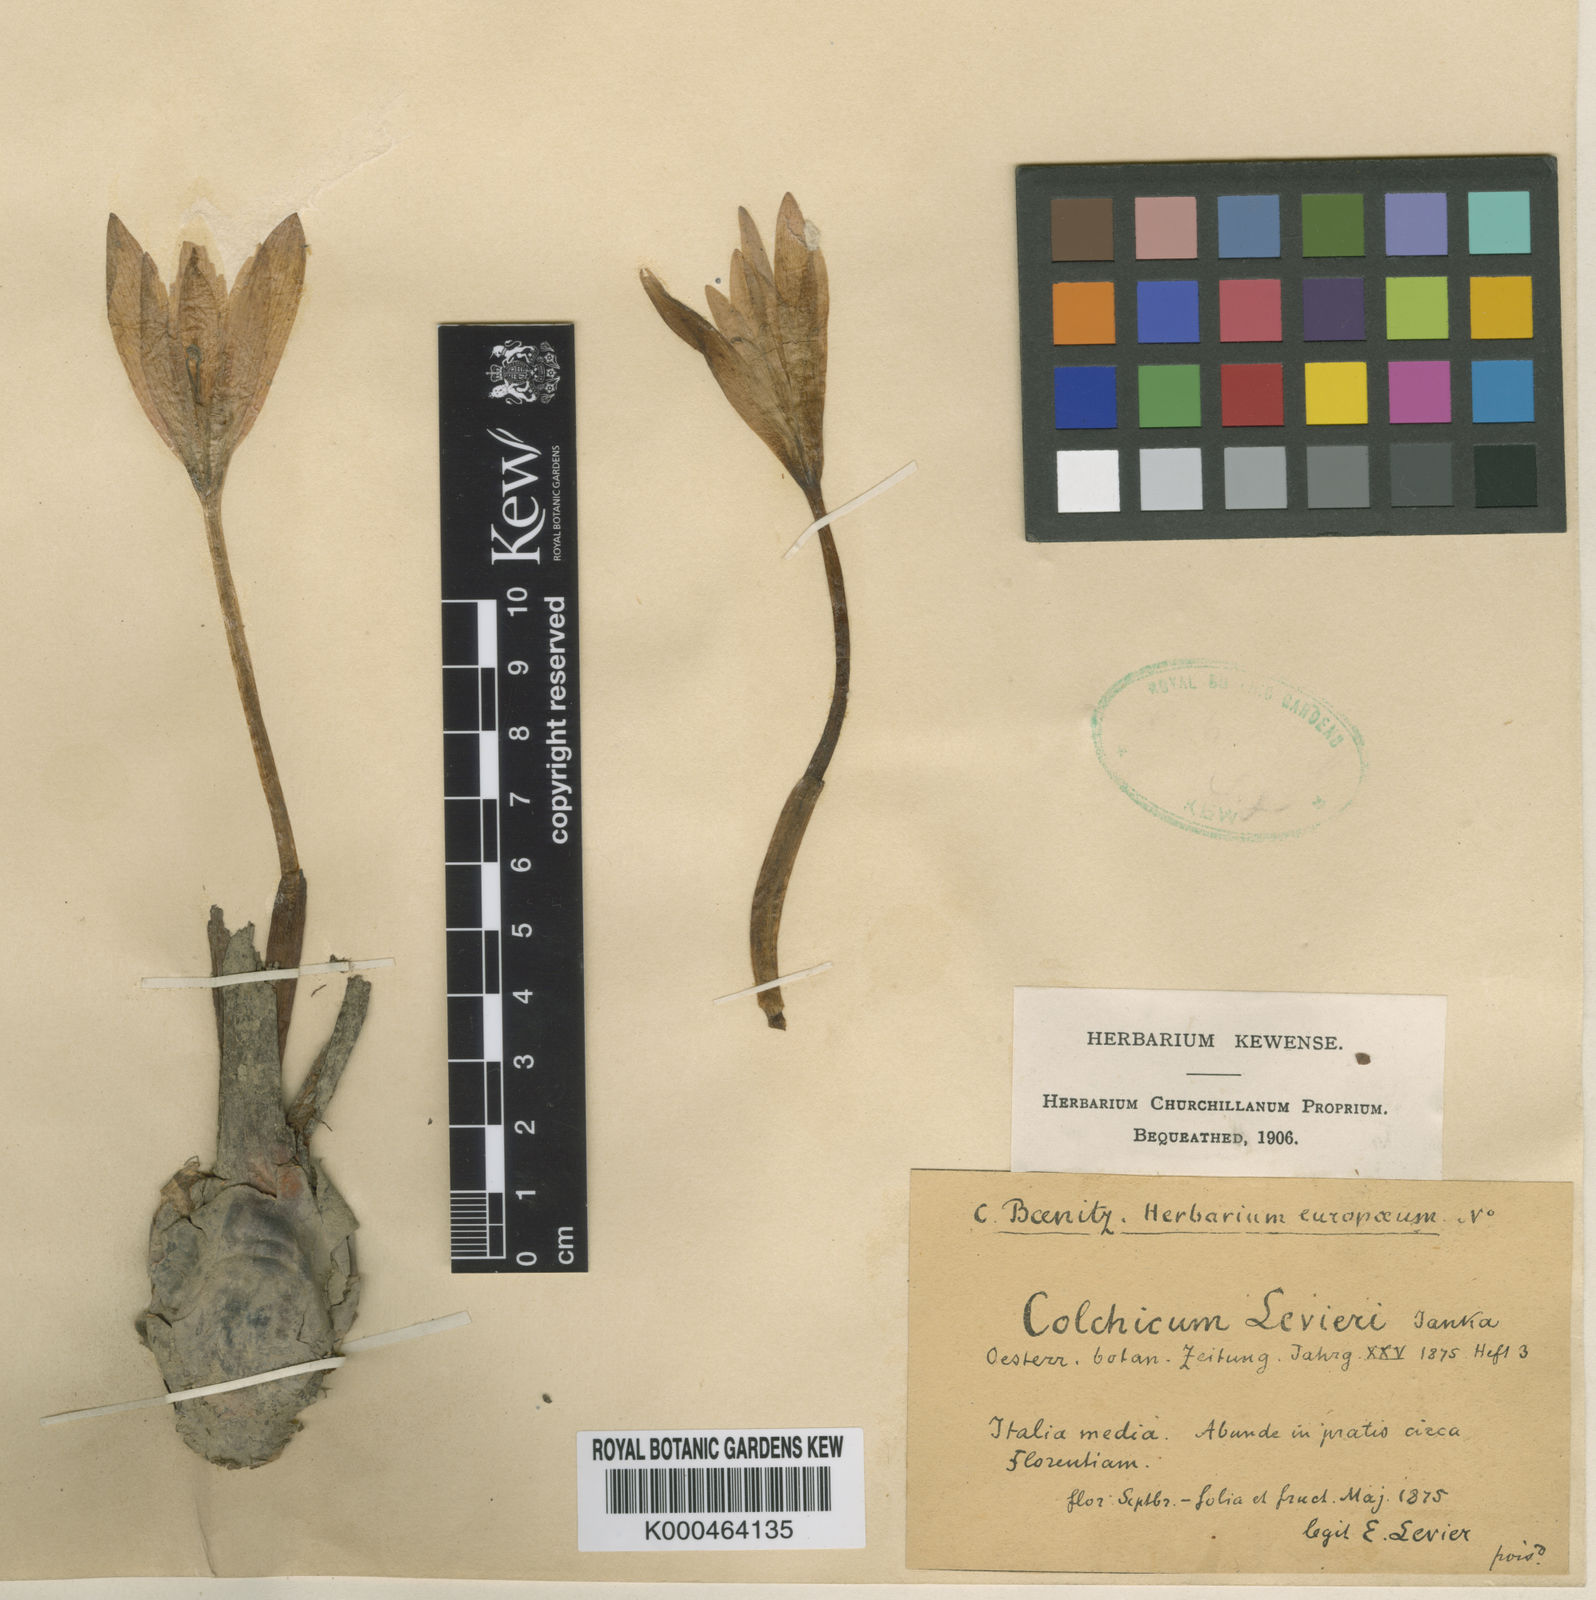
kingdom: Plantae
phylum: Tracheophyta
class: Liliopsida
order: Liliales
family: Colchicaceae
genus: Colchicum
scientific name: Colchicum lusitanum
